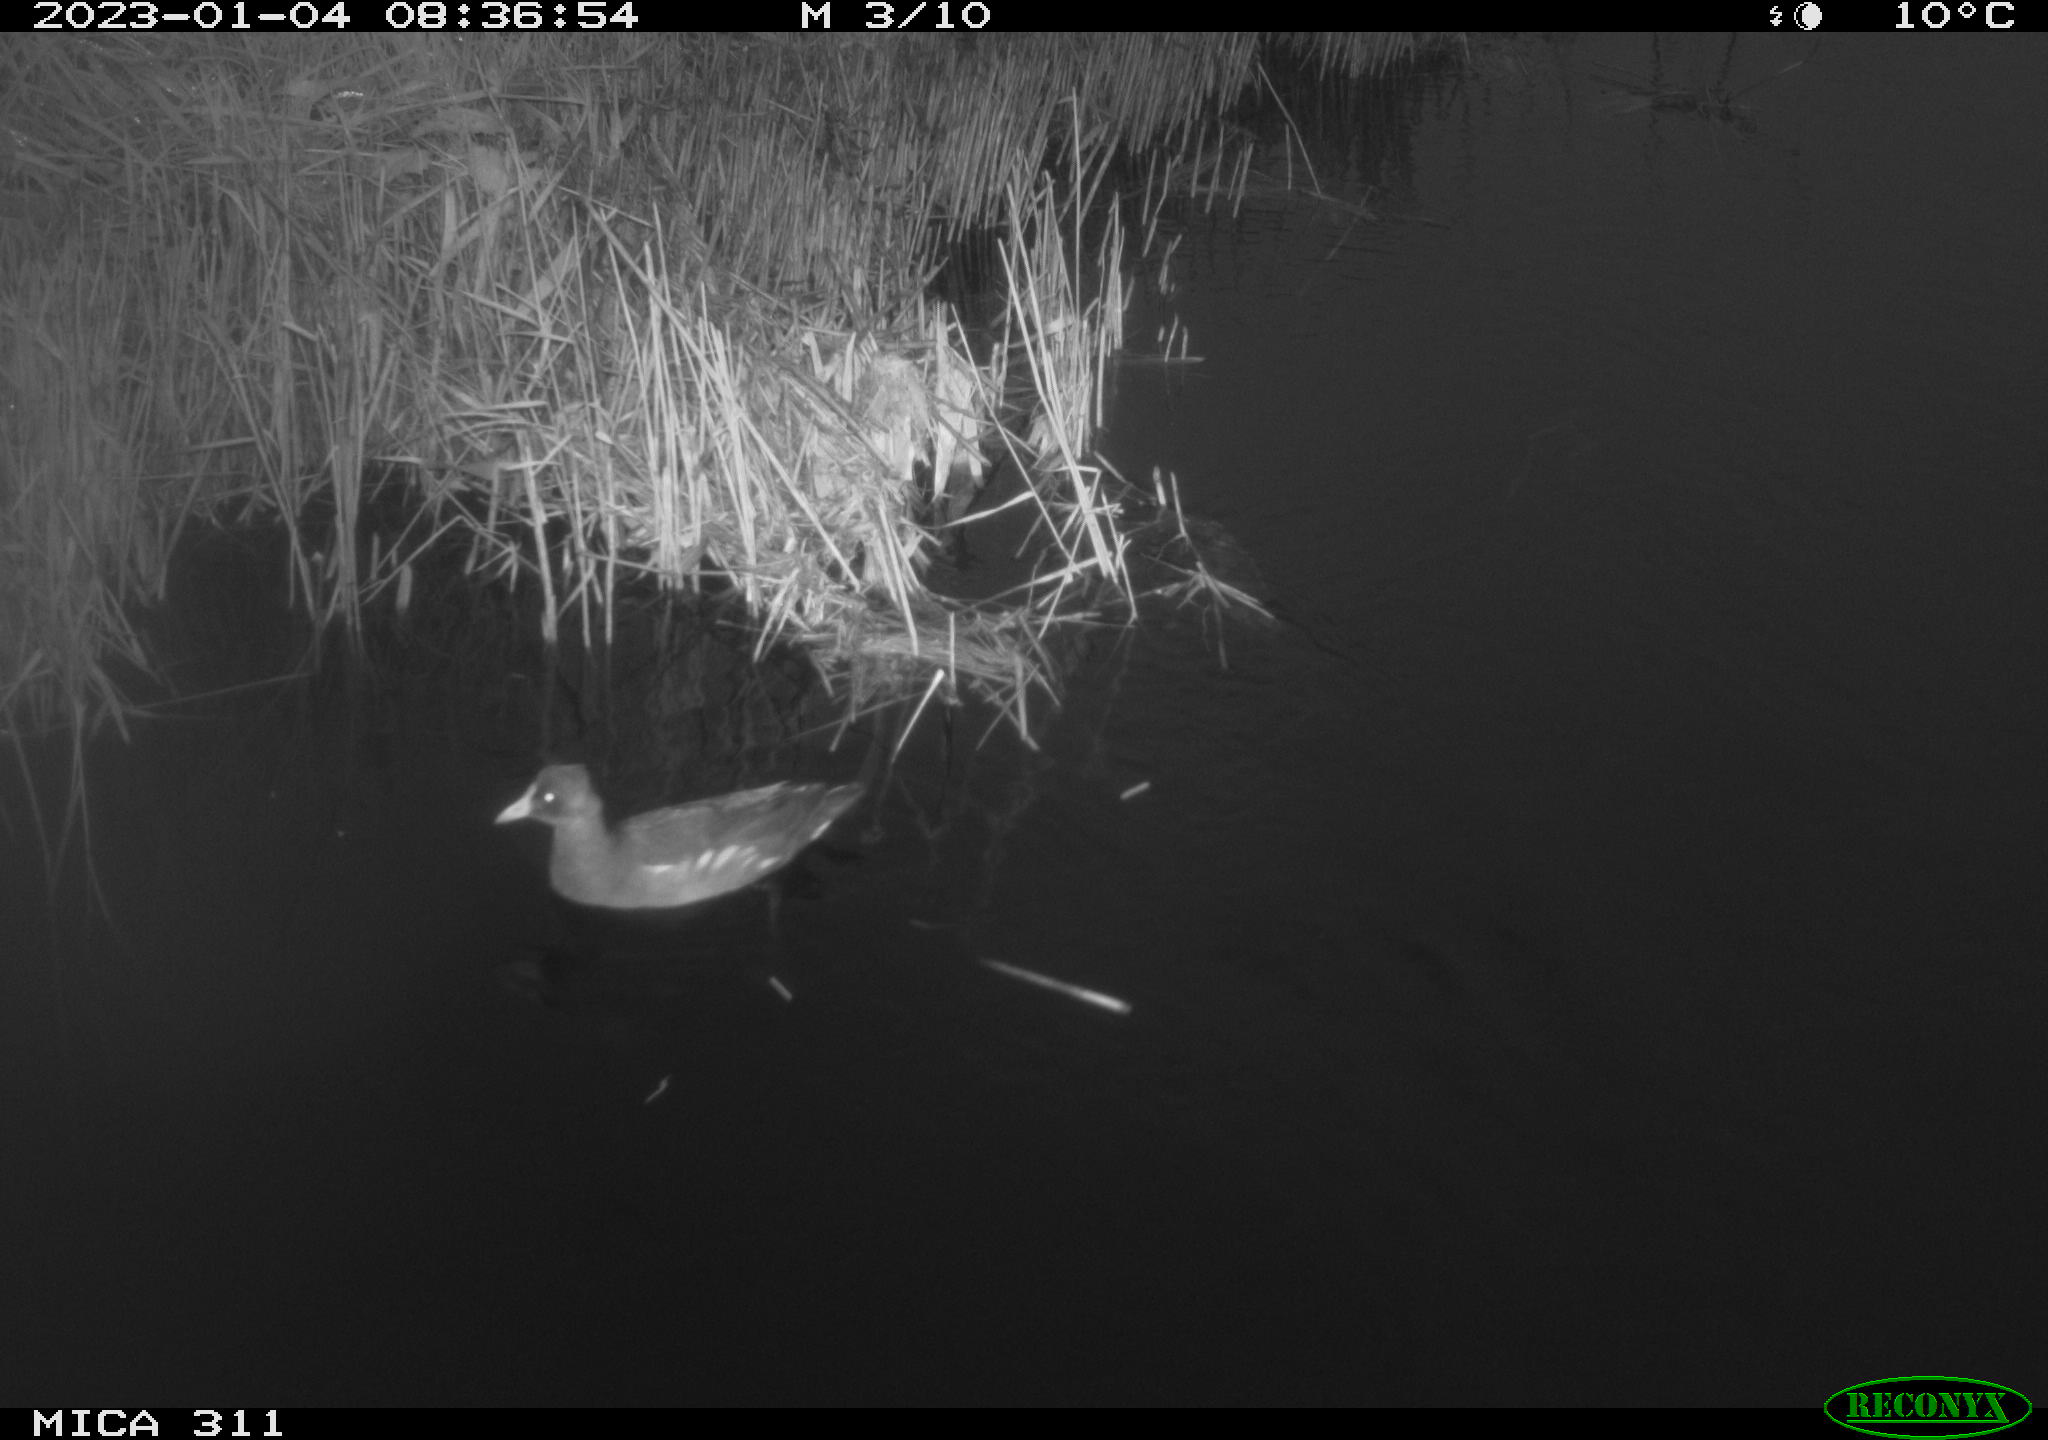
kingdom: Animalia
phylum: Chordata
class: Aves
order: Gruiformes
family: Rallidae
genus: Gallinula
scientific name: Gallinula chloropus
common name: Common moorhen
